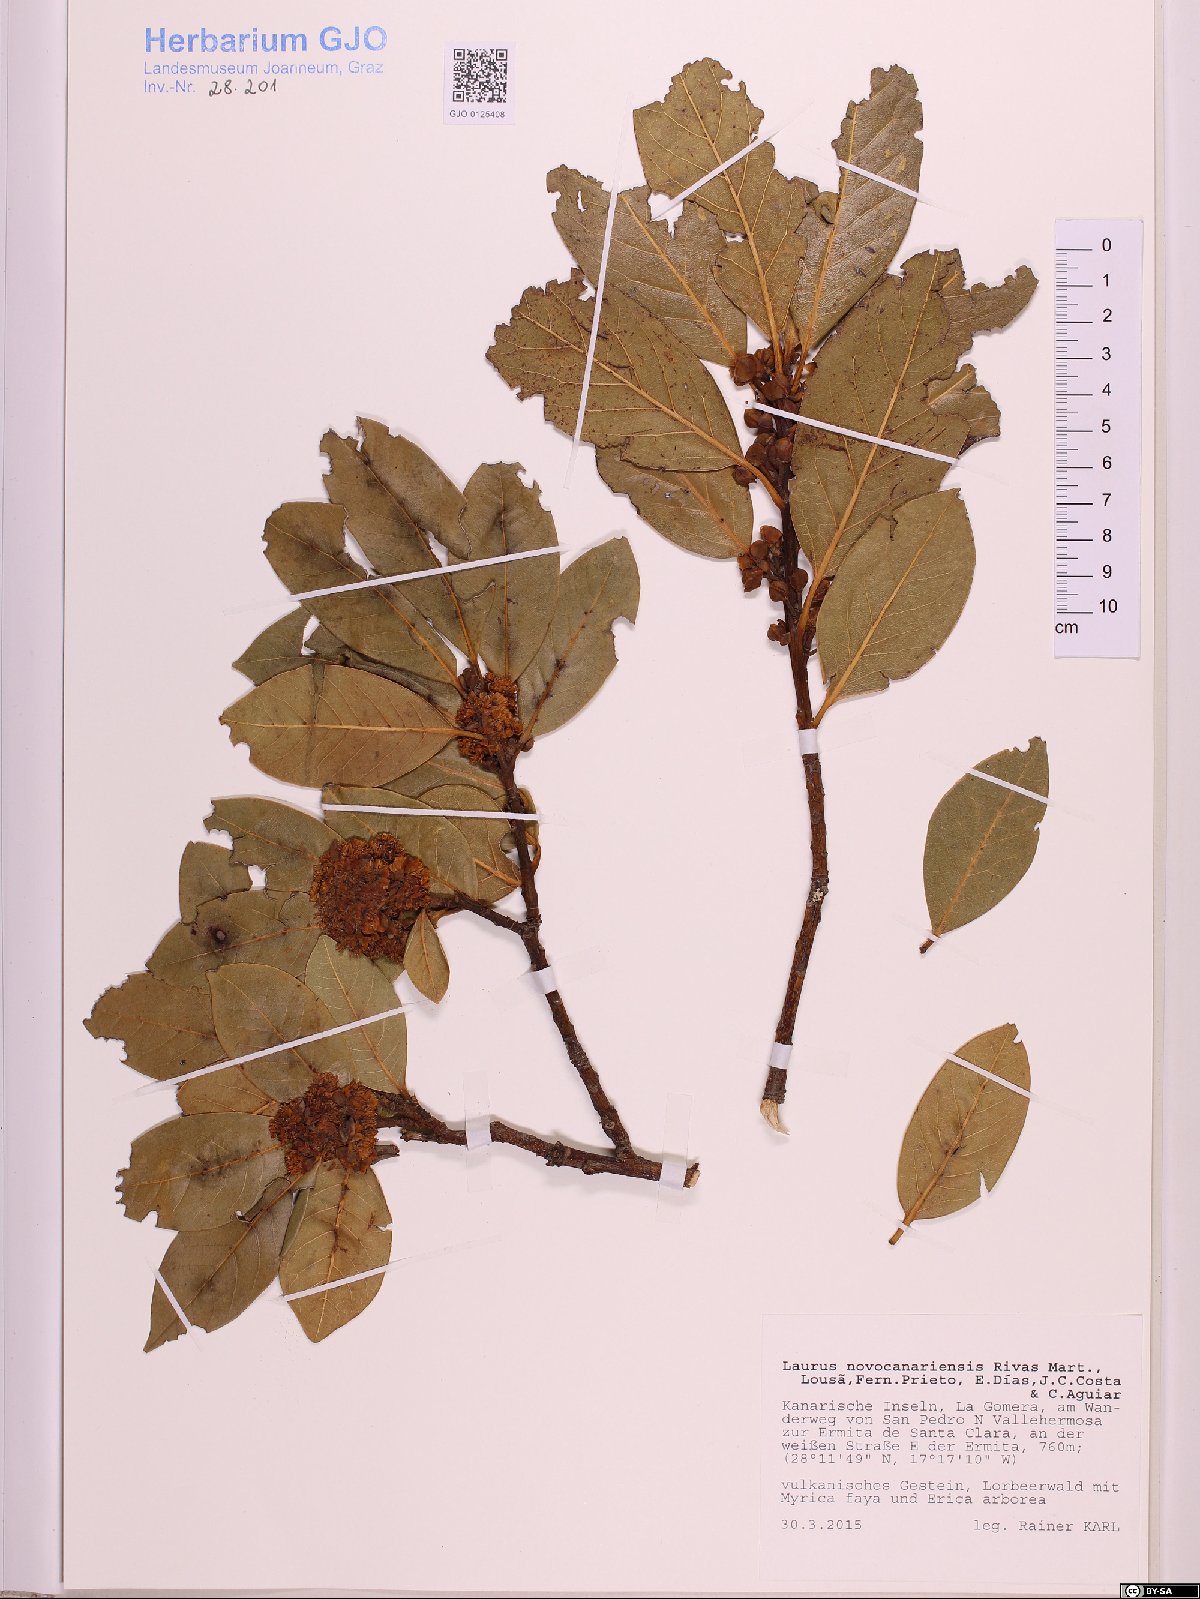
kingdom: Plantae
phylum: Tracheophyta
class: Magnoliopsida
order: Laurales
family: Lauraceae
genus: Laurus
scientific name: Laurus novocanariensis
